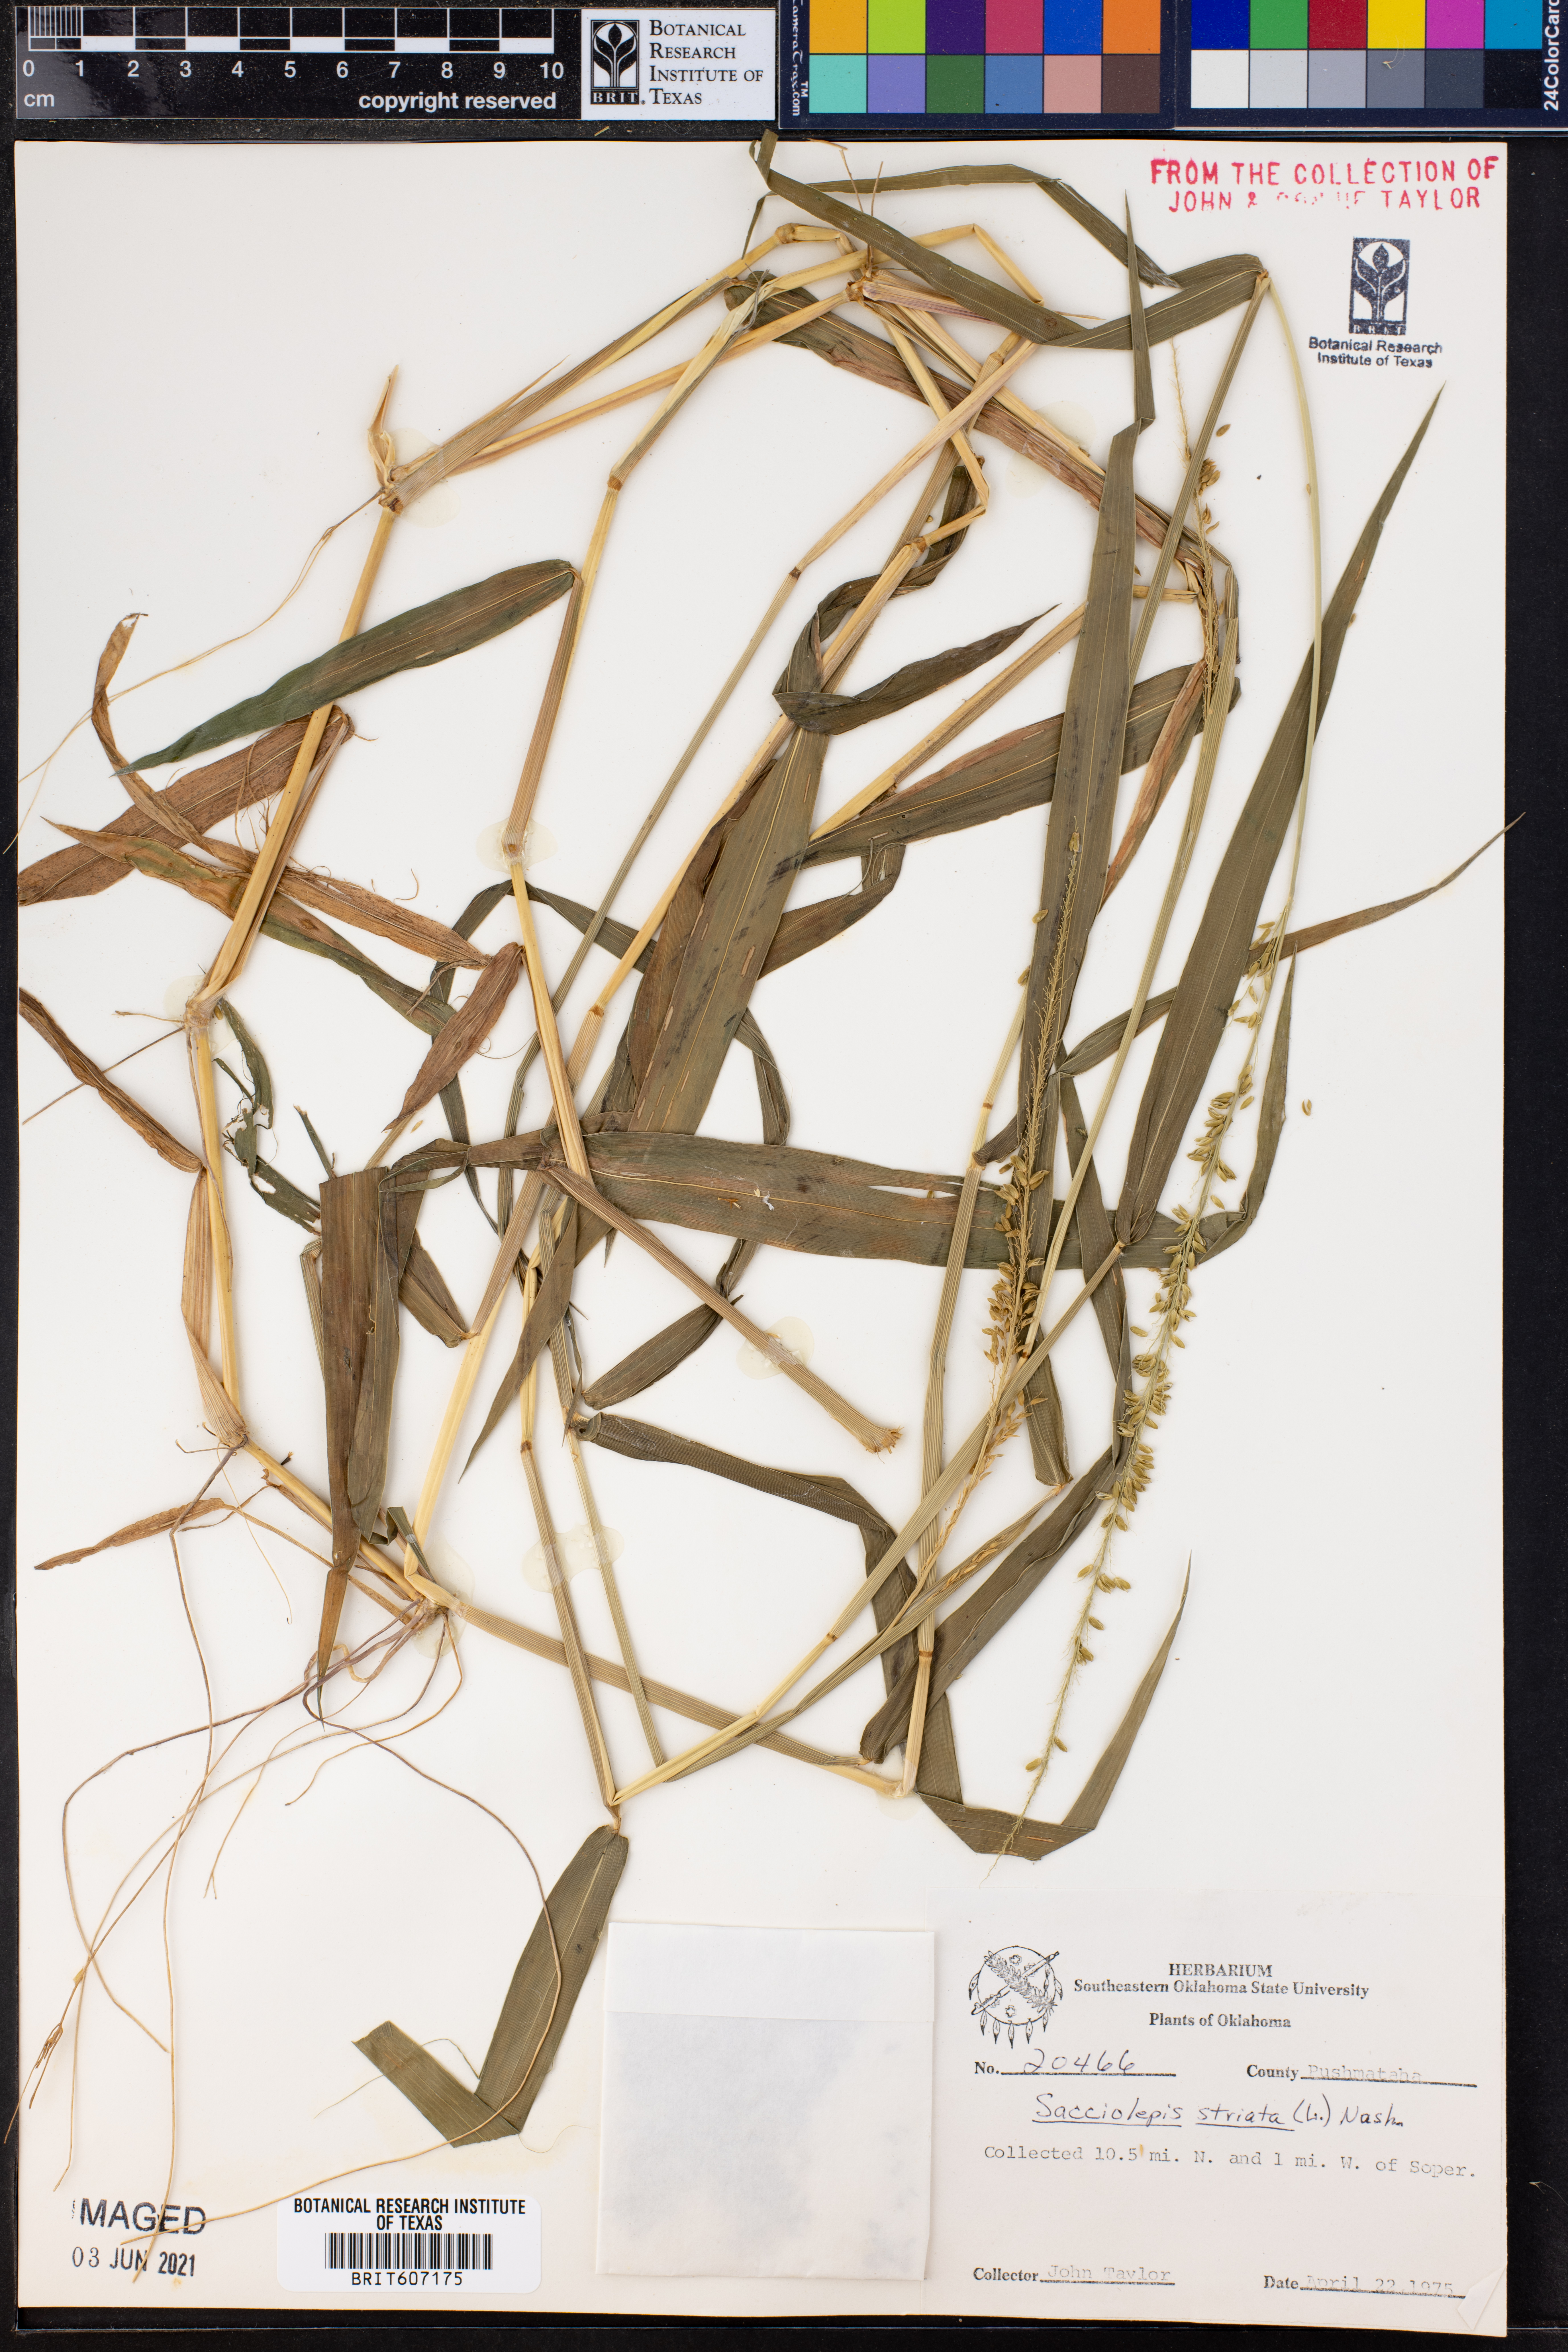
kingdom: Plantae
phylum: Tracheophyta
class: Liliopsida
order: Poales
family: Poaceae
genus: Sacciolepis
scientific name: Sacciolepis striata
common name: American cupscale
